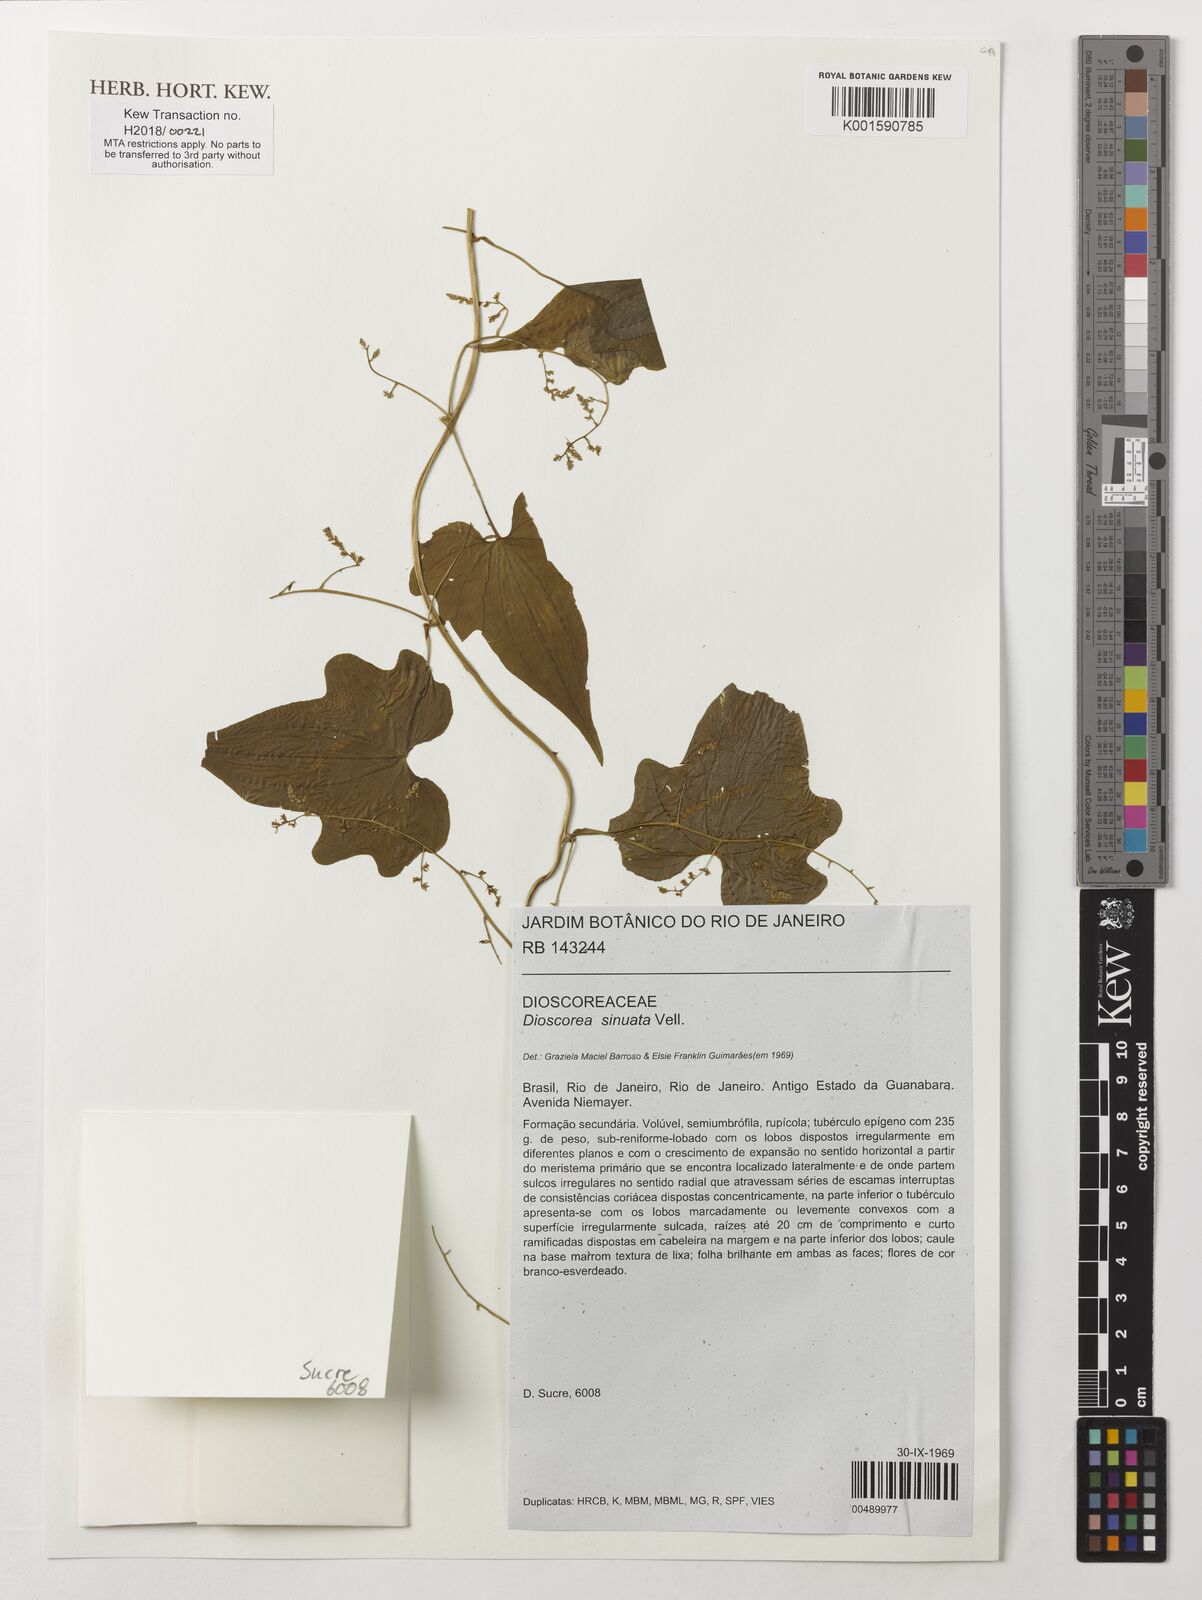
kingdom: Plantae
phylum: Tracheophyta
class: Liliopsida
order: Dioscoreales
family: Dioscoreaceae
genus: Dioscorea
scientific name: Dioscorea sinuata
